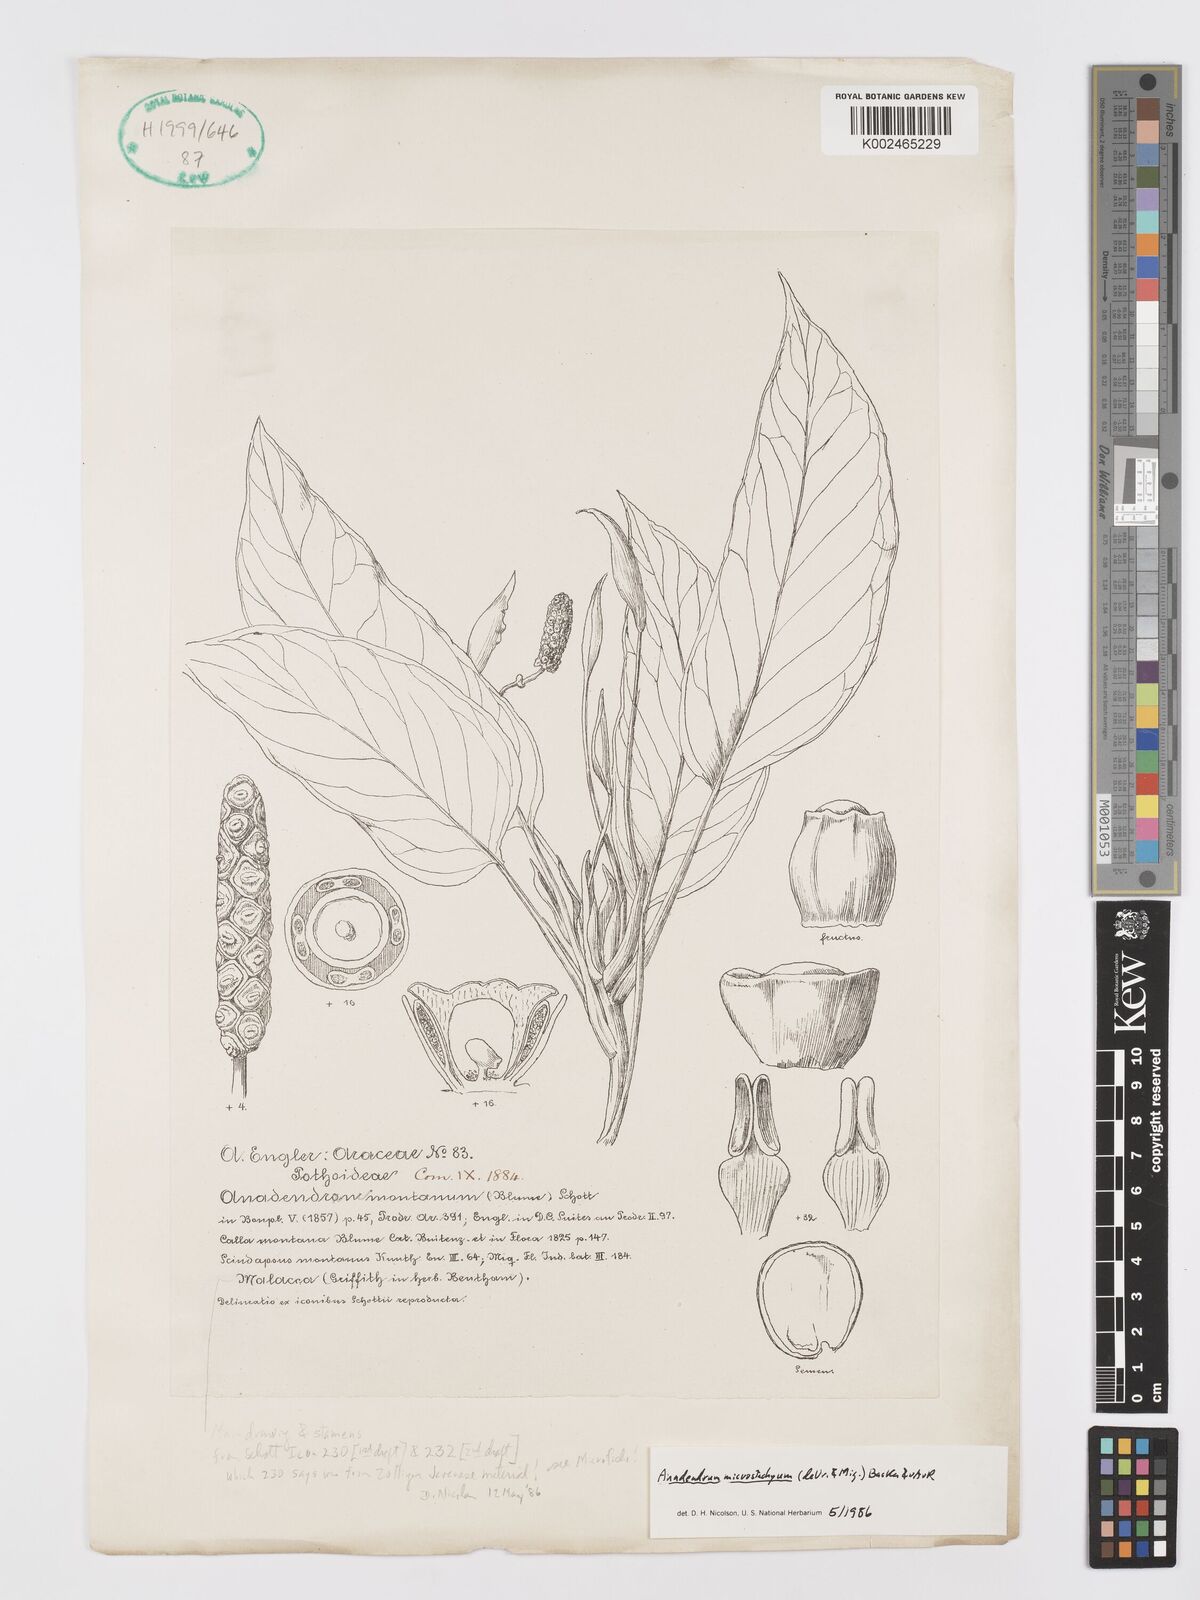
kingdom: Plantae
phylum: Tracheophyta
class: Liliopsida
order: Alismatales
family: Araceae
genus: Anadendrum
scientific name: Anadendrum microstachyum
